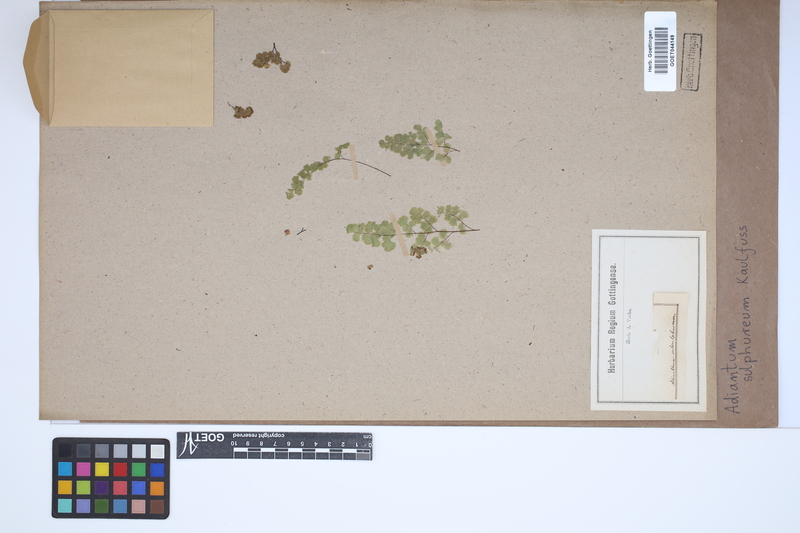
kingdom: Plantae
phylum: Tracheophyta
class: Polypodiopsida
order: Polypodiales
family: Pteridaceae
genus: Adiantum
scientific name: Adiantum sulphureum
